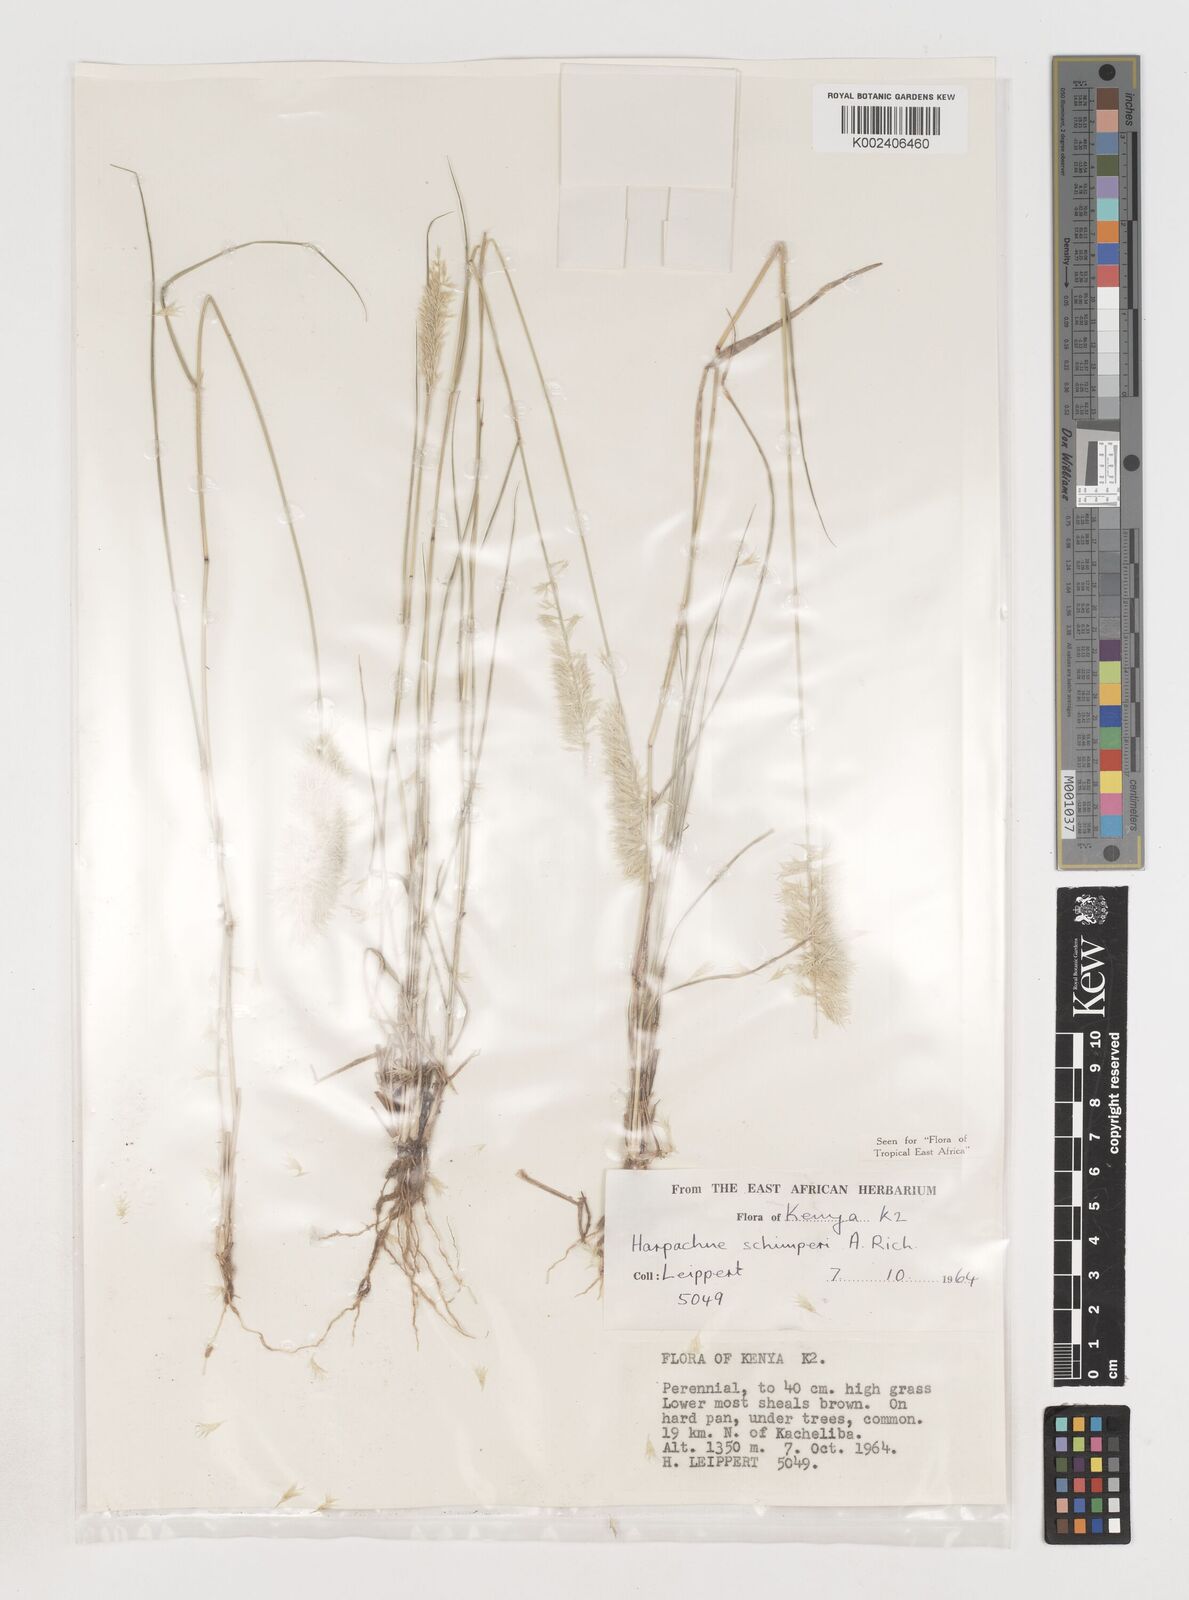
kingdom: Plantae
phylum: Tracheophyta
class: Liliopsida
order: Poales
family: Poaceae
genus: Harpachne
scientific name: Harpachne schimperi
